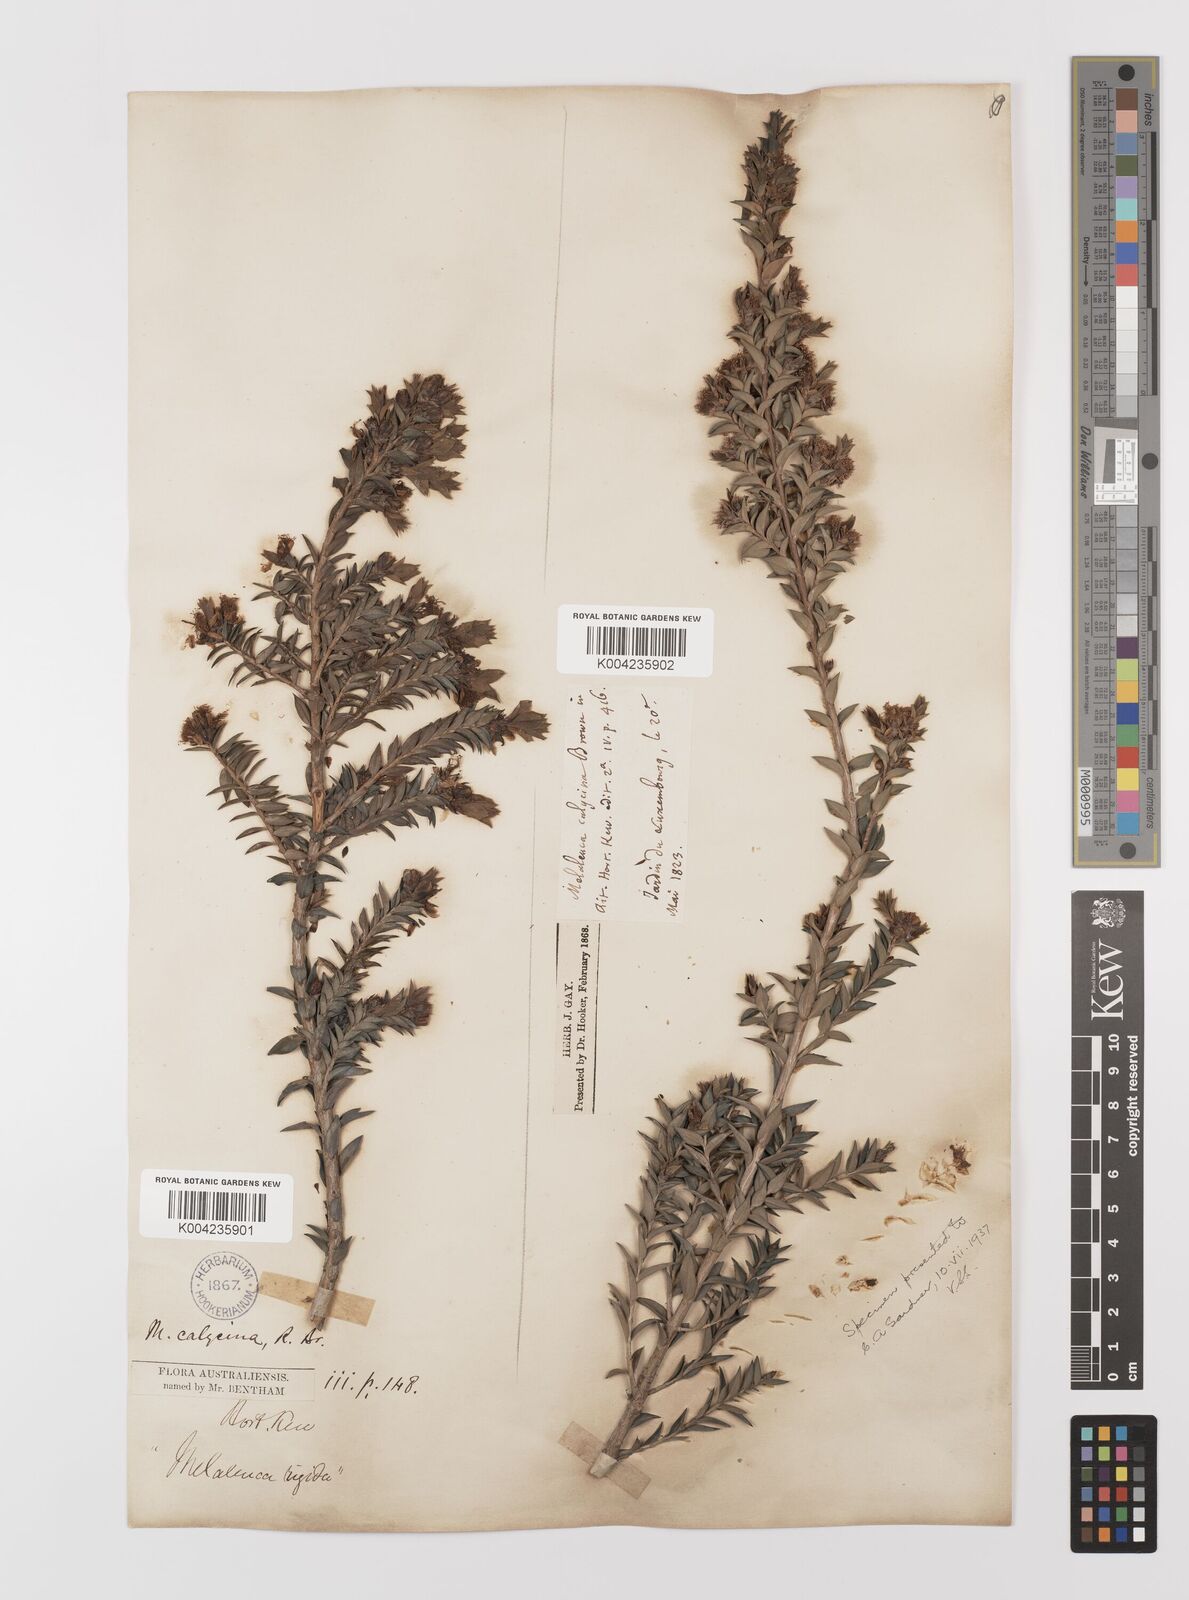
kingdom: Plantae
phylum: Tracheophyta
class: Magnoliopsida
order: Myrtales
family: Myrtaceae
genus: Melaleuca
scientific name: Melaleuca calycina
